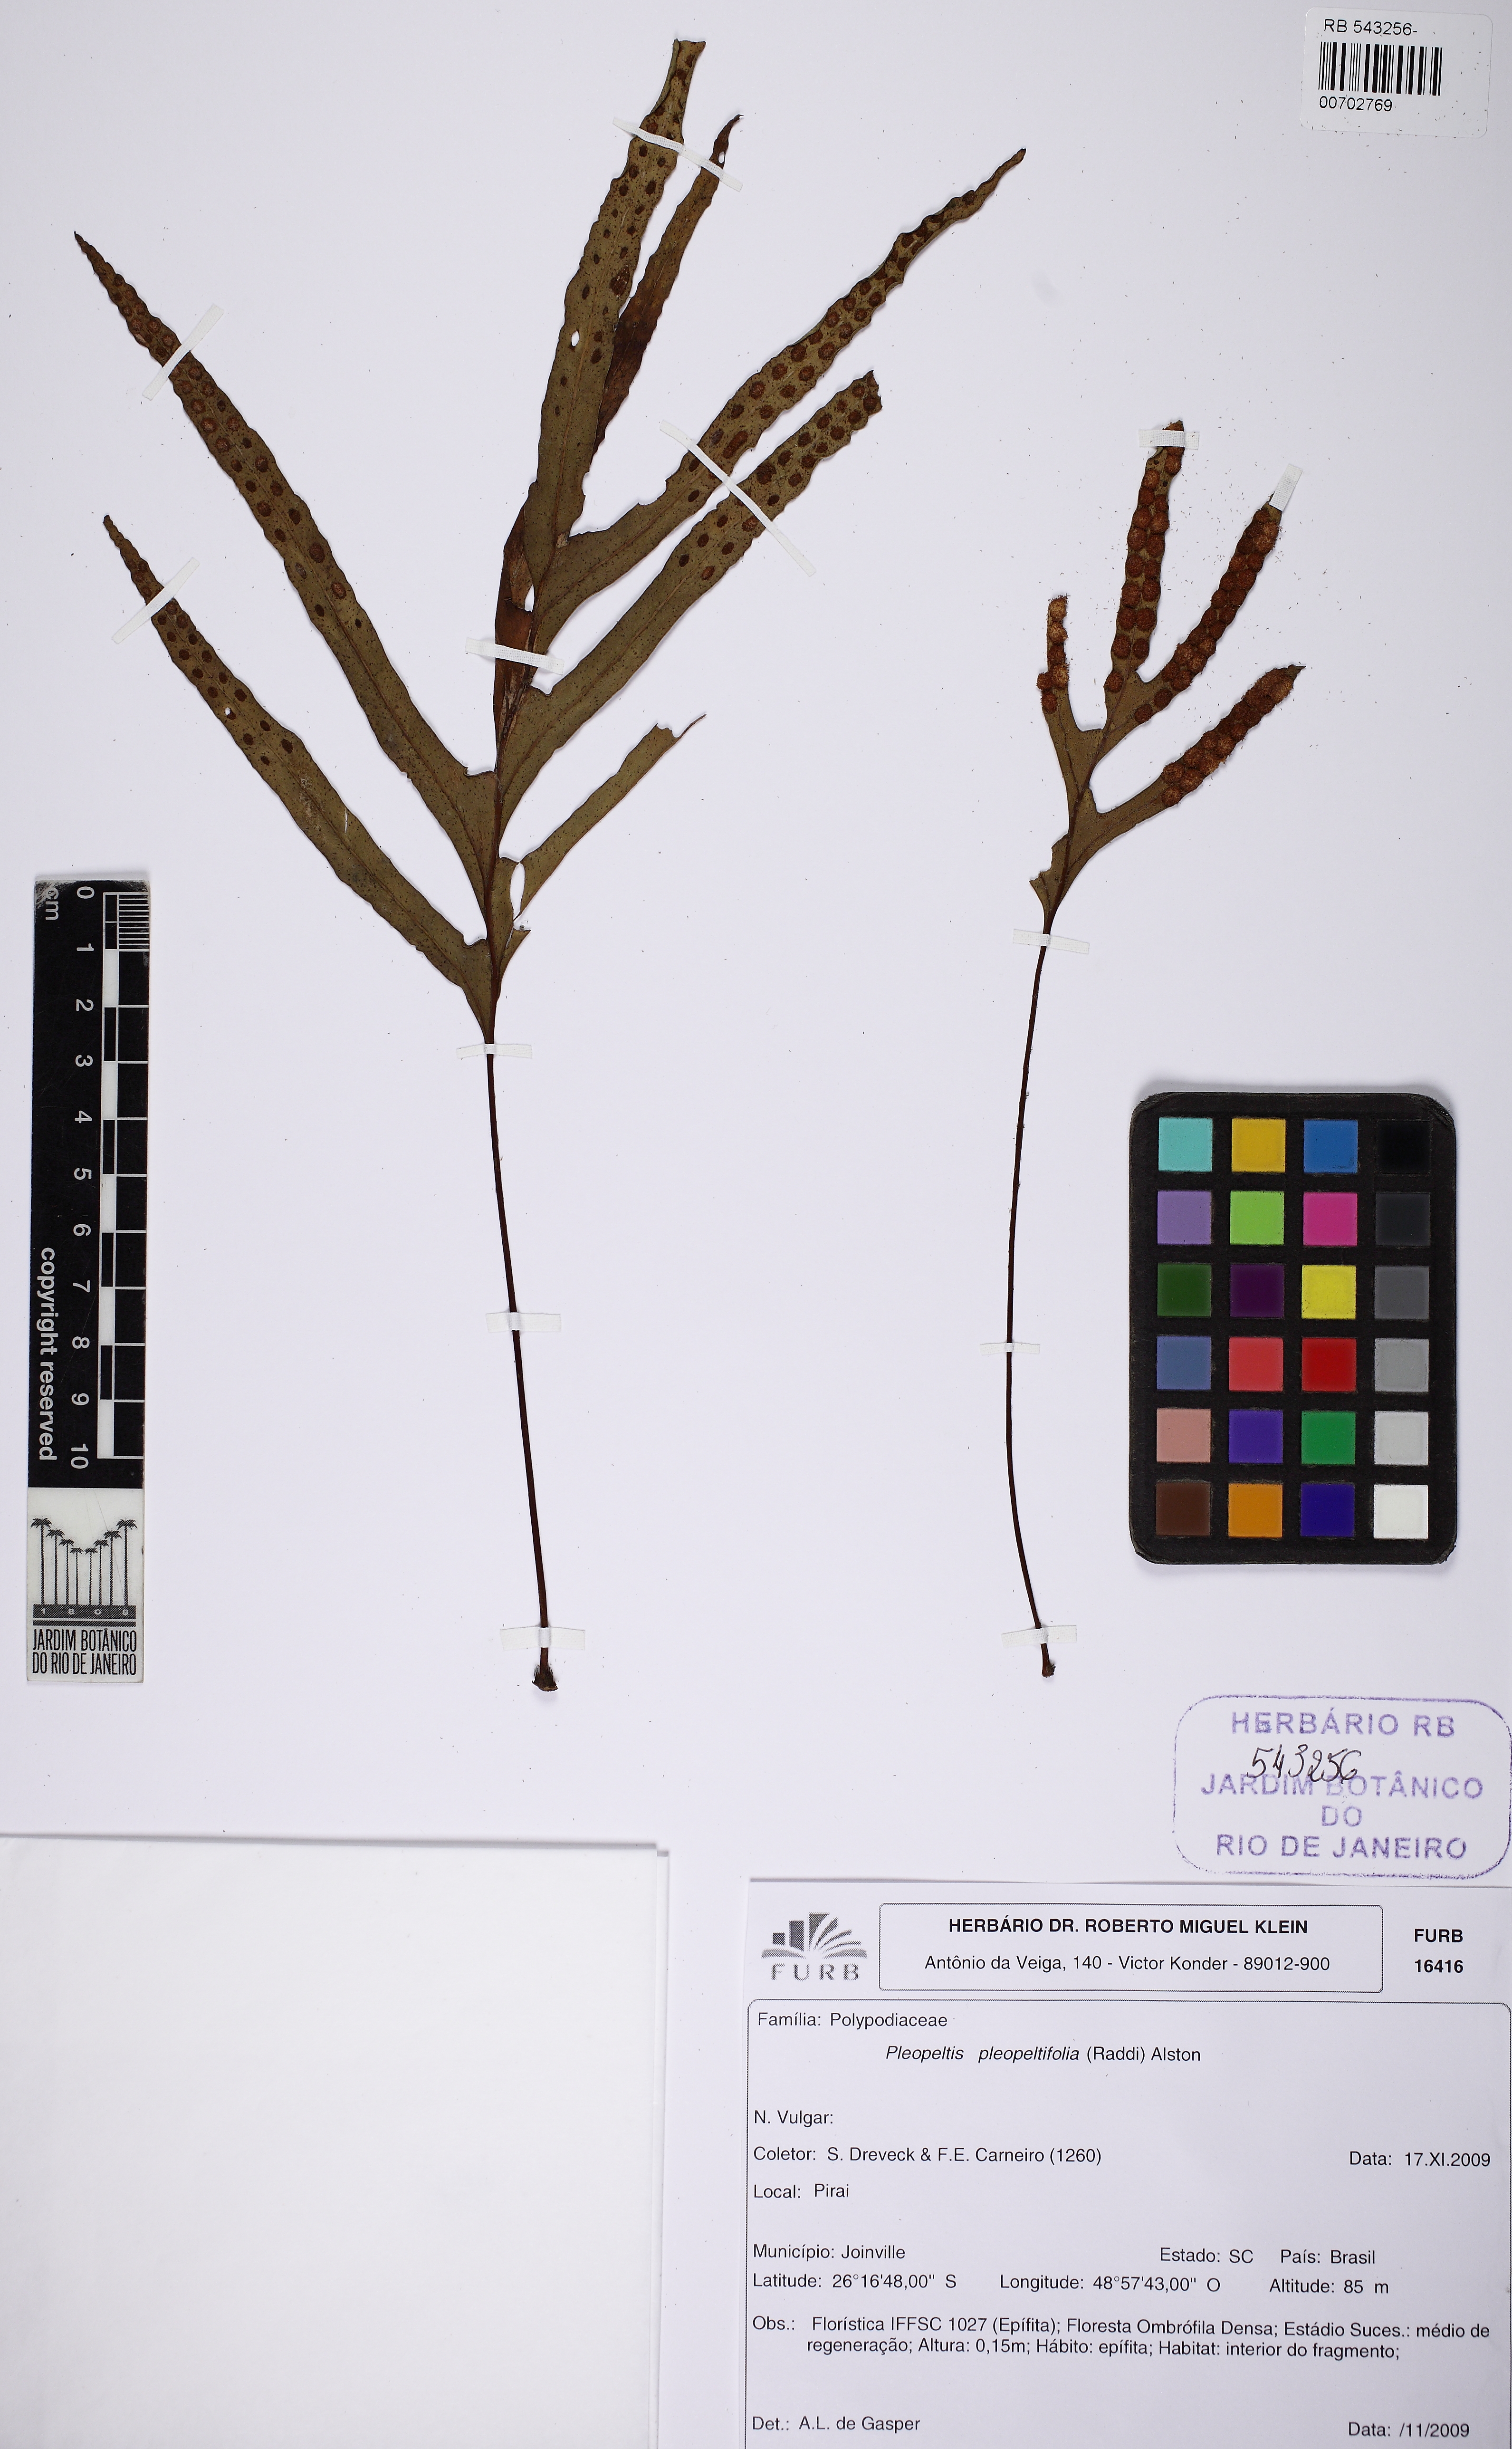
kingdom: Plantae
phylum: Tracheophyta
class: Polypodiopsida
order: Polypodiales
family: Polypodiaceae
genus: Pleopeltis
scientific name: Pleopeltis pleopeltifolia
